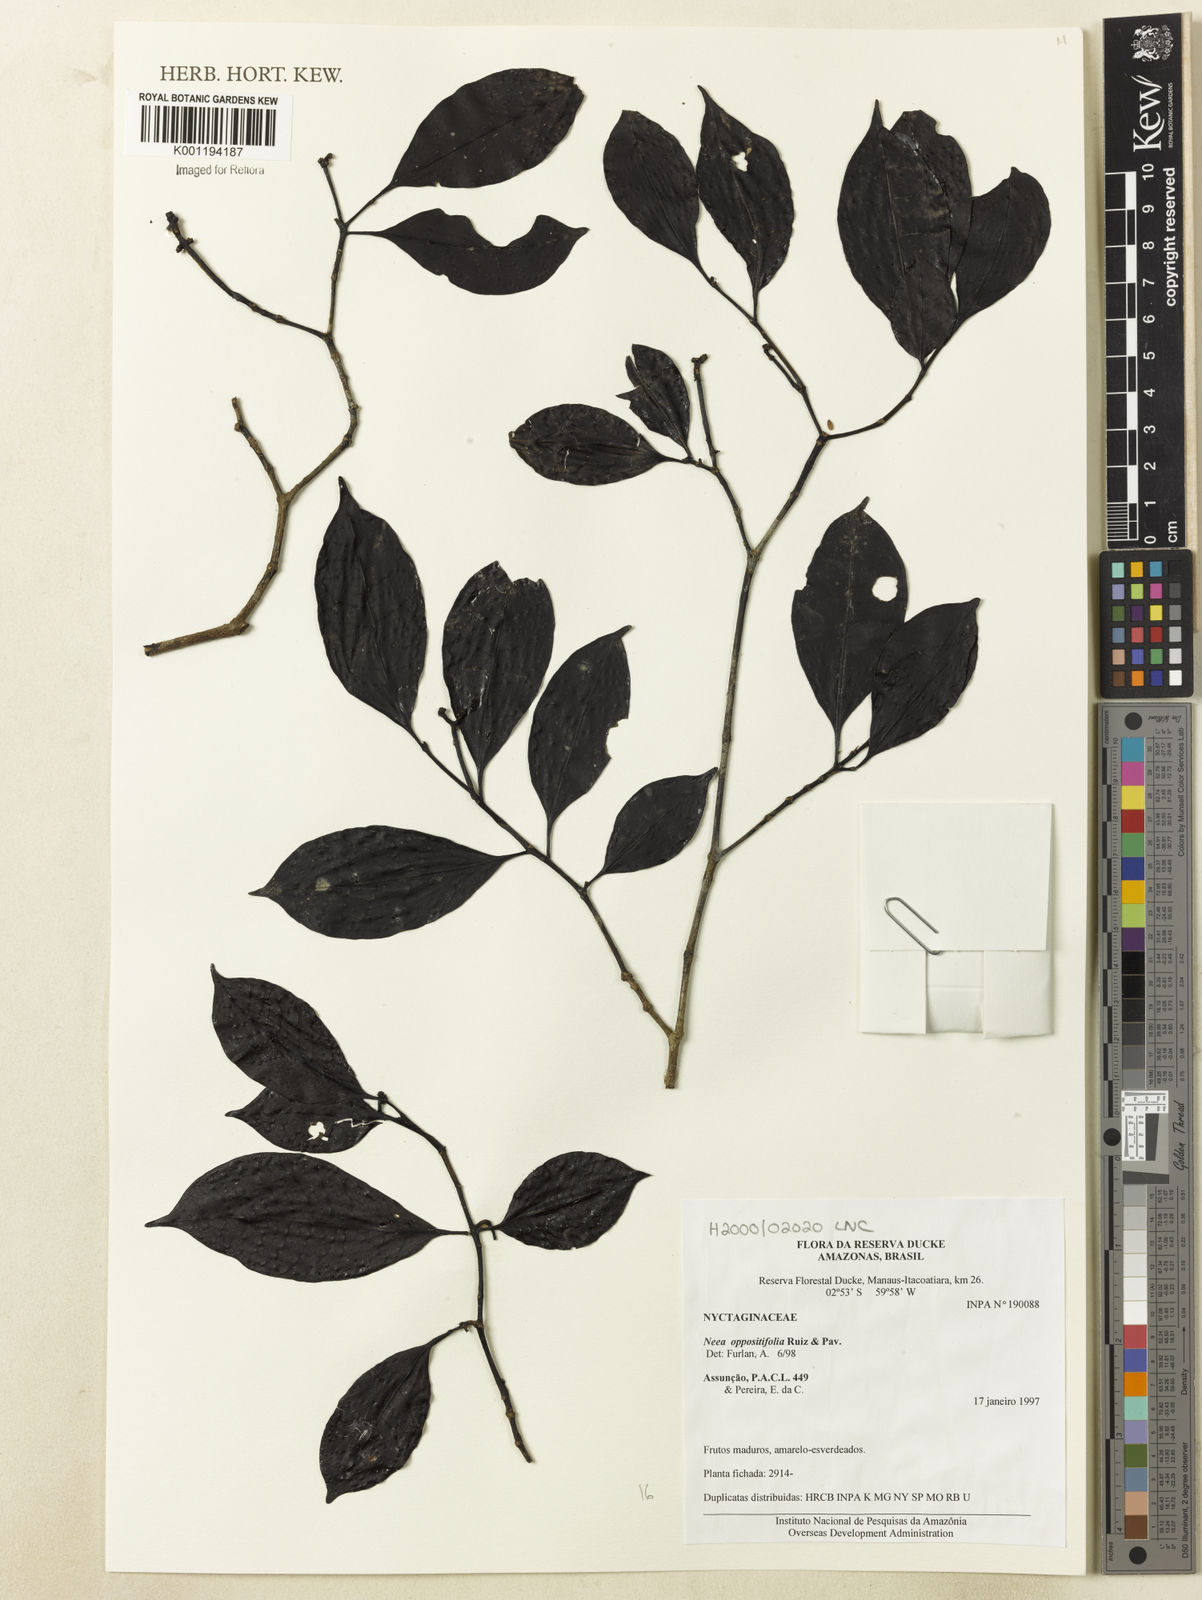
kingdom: Plantae
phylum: Tracheophyta
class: Magnoliopsida
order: Caryophyllales
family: Nyctaginaceae
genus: Neea
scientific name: Neea oppositifolia
